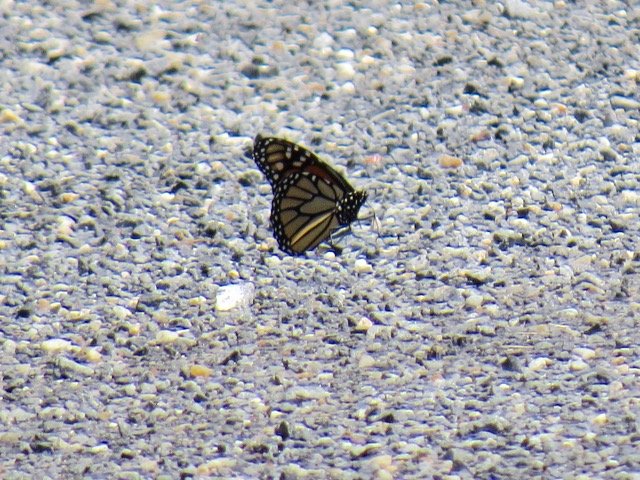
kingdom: Animalia
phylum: Arthropoda
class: Insecta
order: Lepidoptera
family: Nymphalidae
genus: Danaus
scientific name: Danaus plexippus
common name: Monarch
